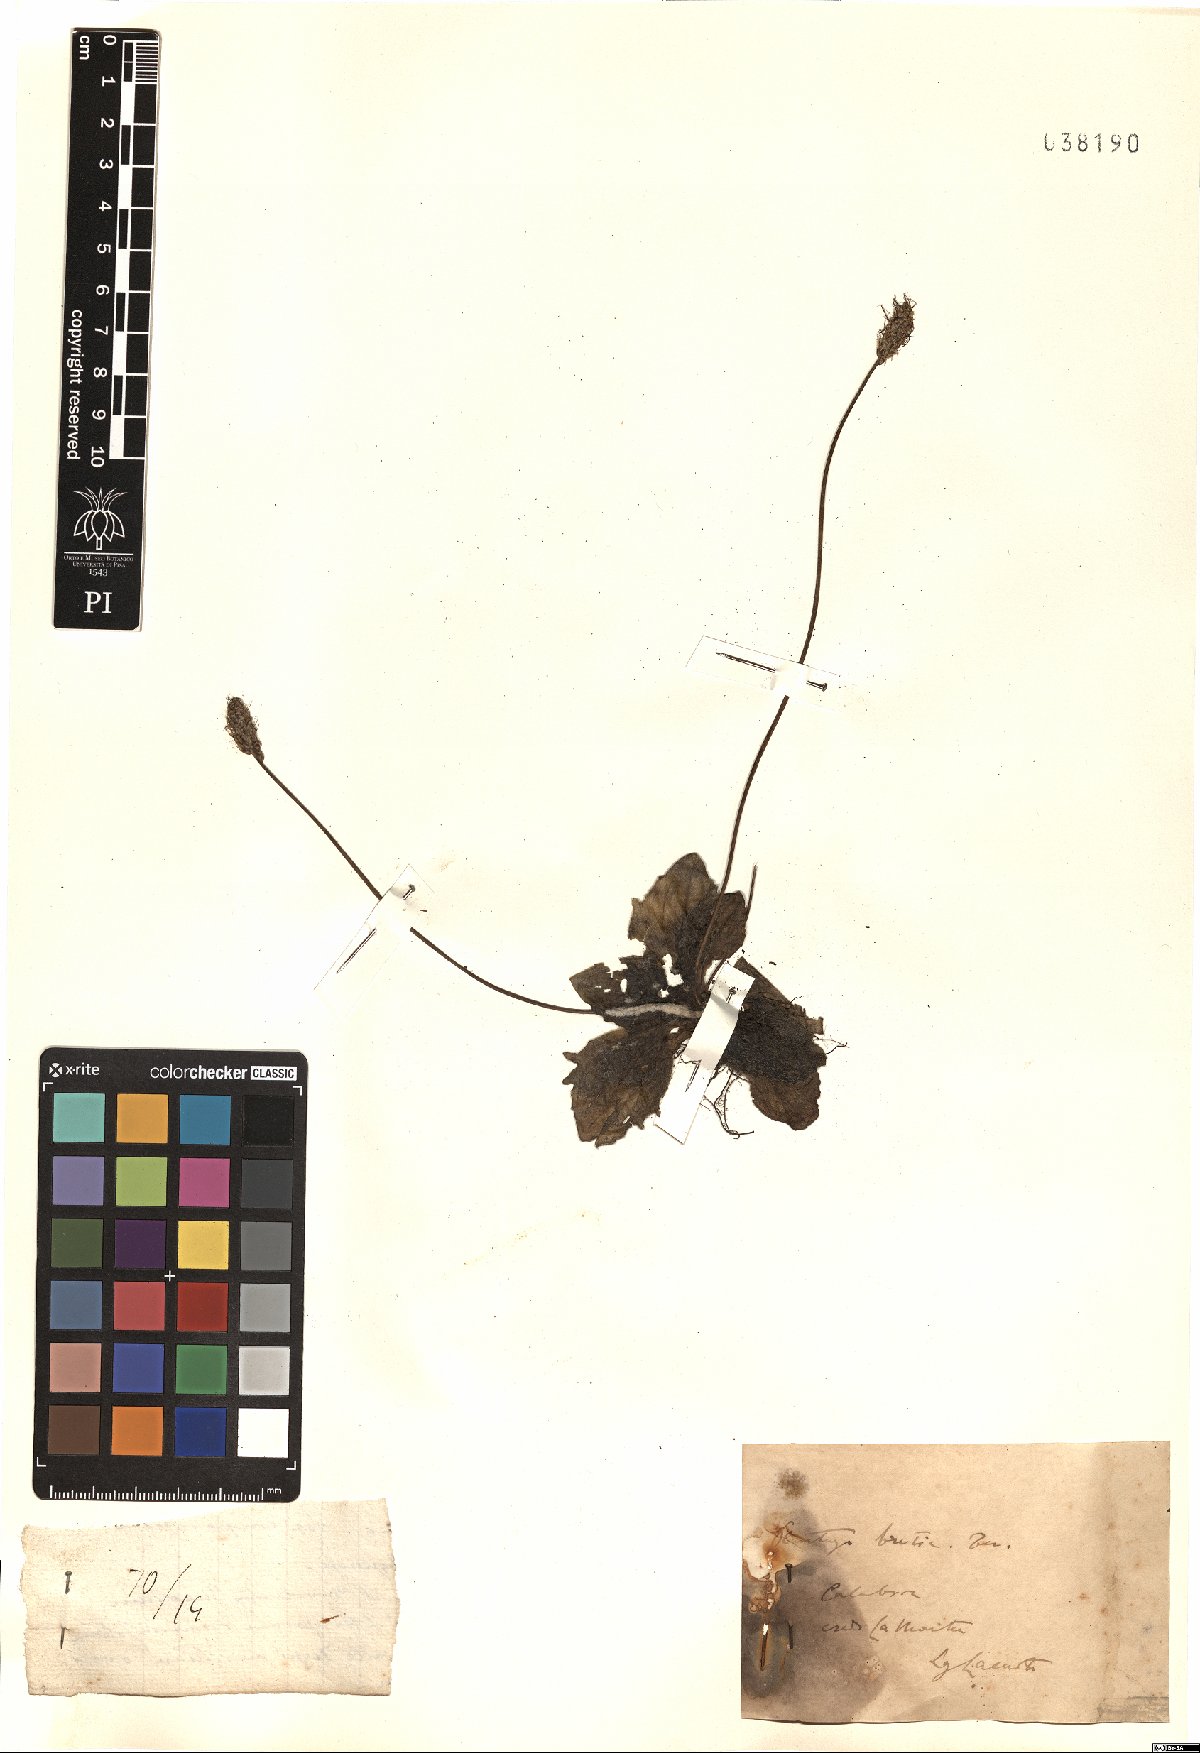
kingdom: Plantae
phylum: Tracheophyta
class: Magnoliopsida
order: Lamiales
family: Plantaginaceae
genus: Plantago
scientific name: Plantago media
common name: Hoary plantain
